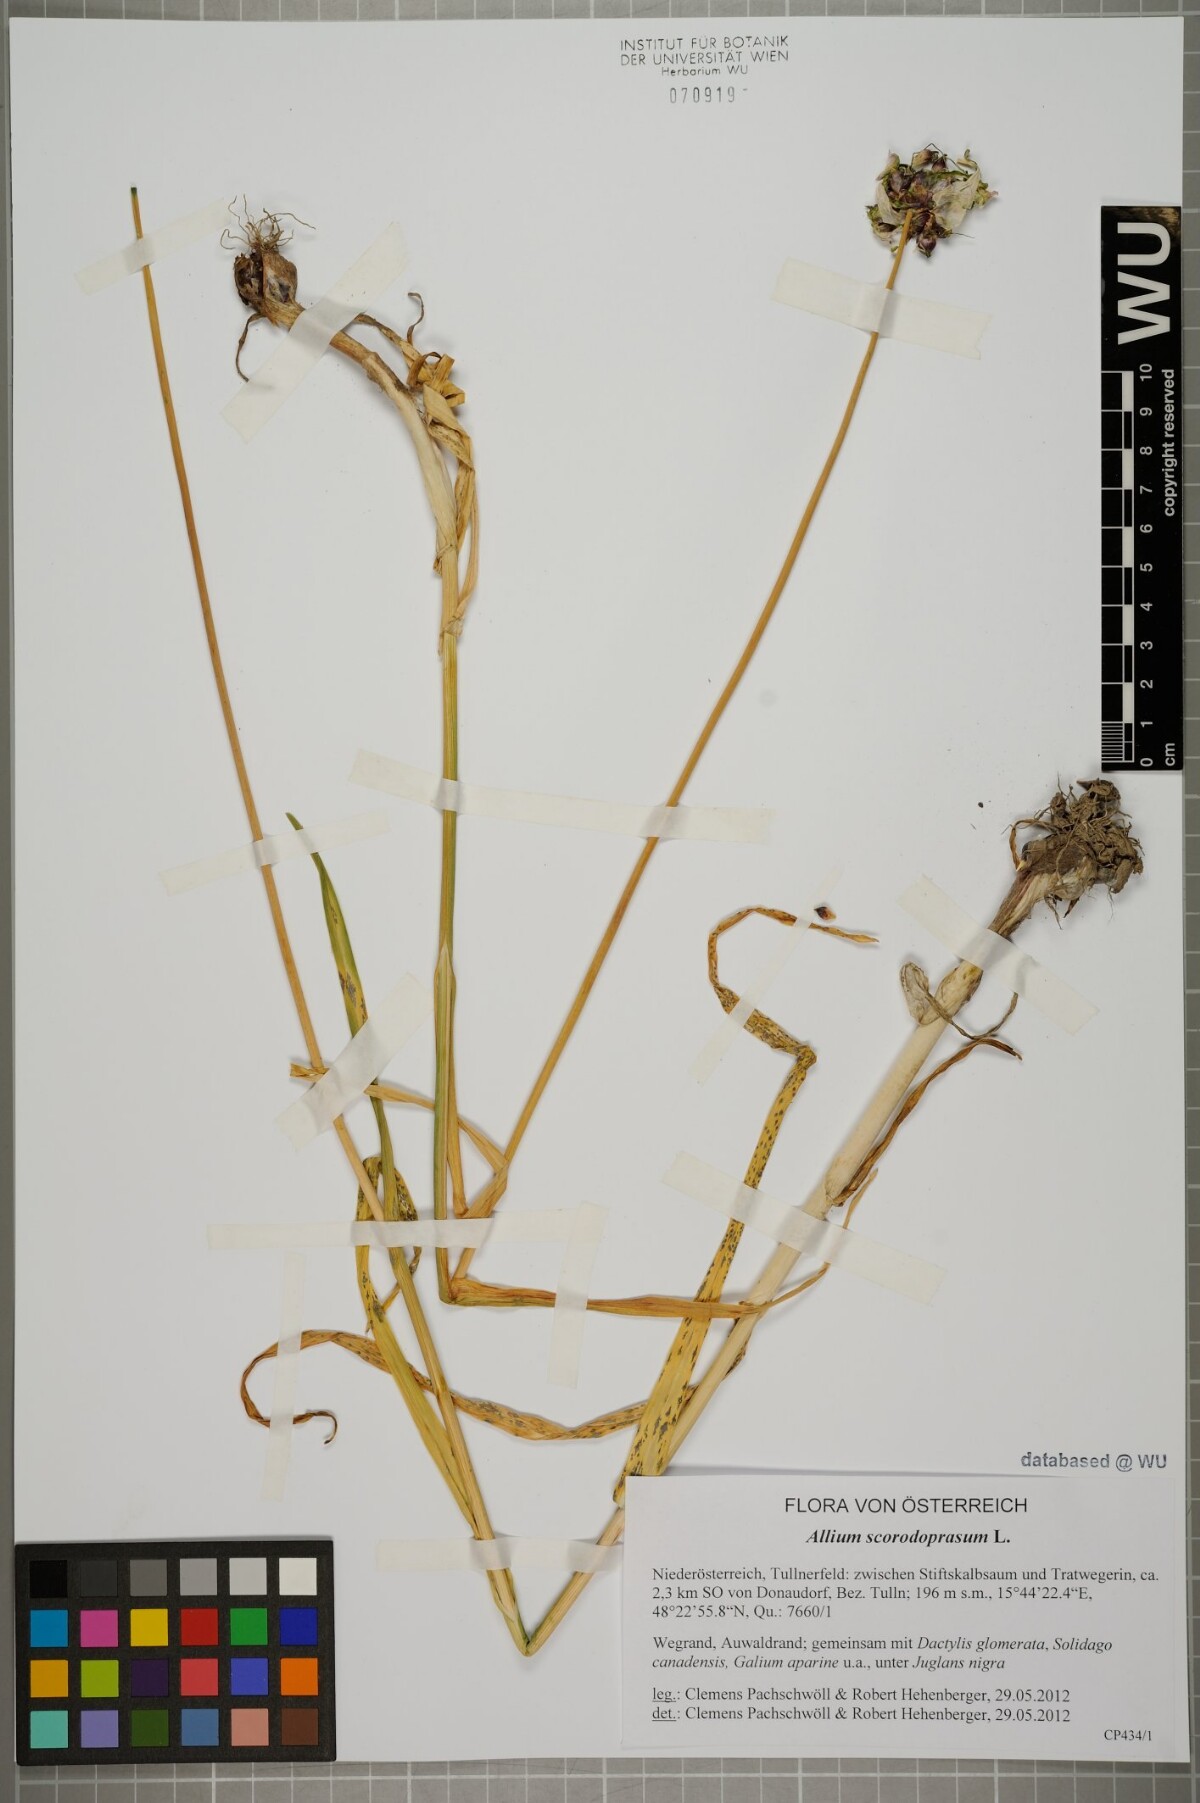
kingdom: Plantae
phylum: Tracheophyta
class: Liliopsida
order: Asparagales
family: Amaryllidaceae
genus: Allium
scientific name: Allium scorodoprasum
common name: Sand leek
